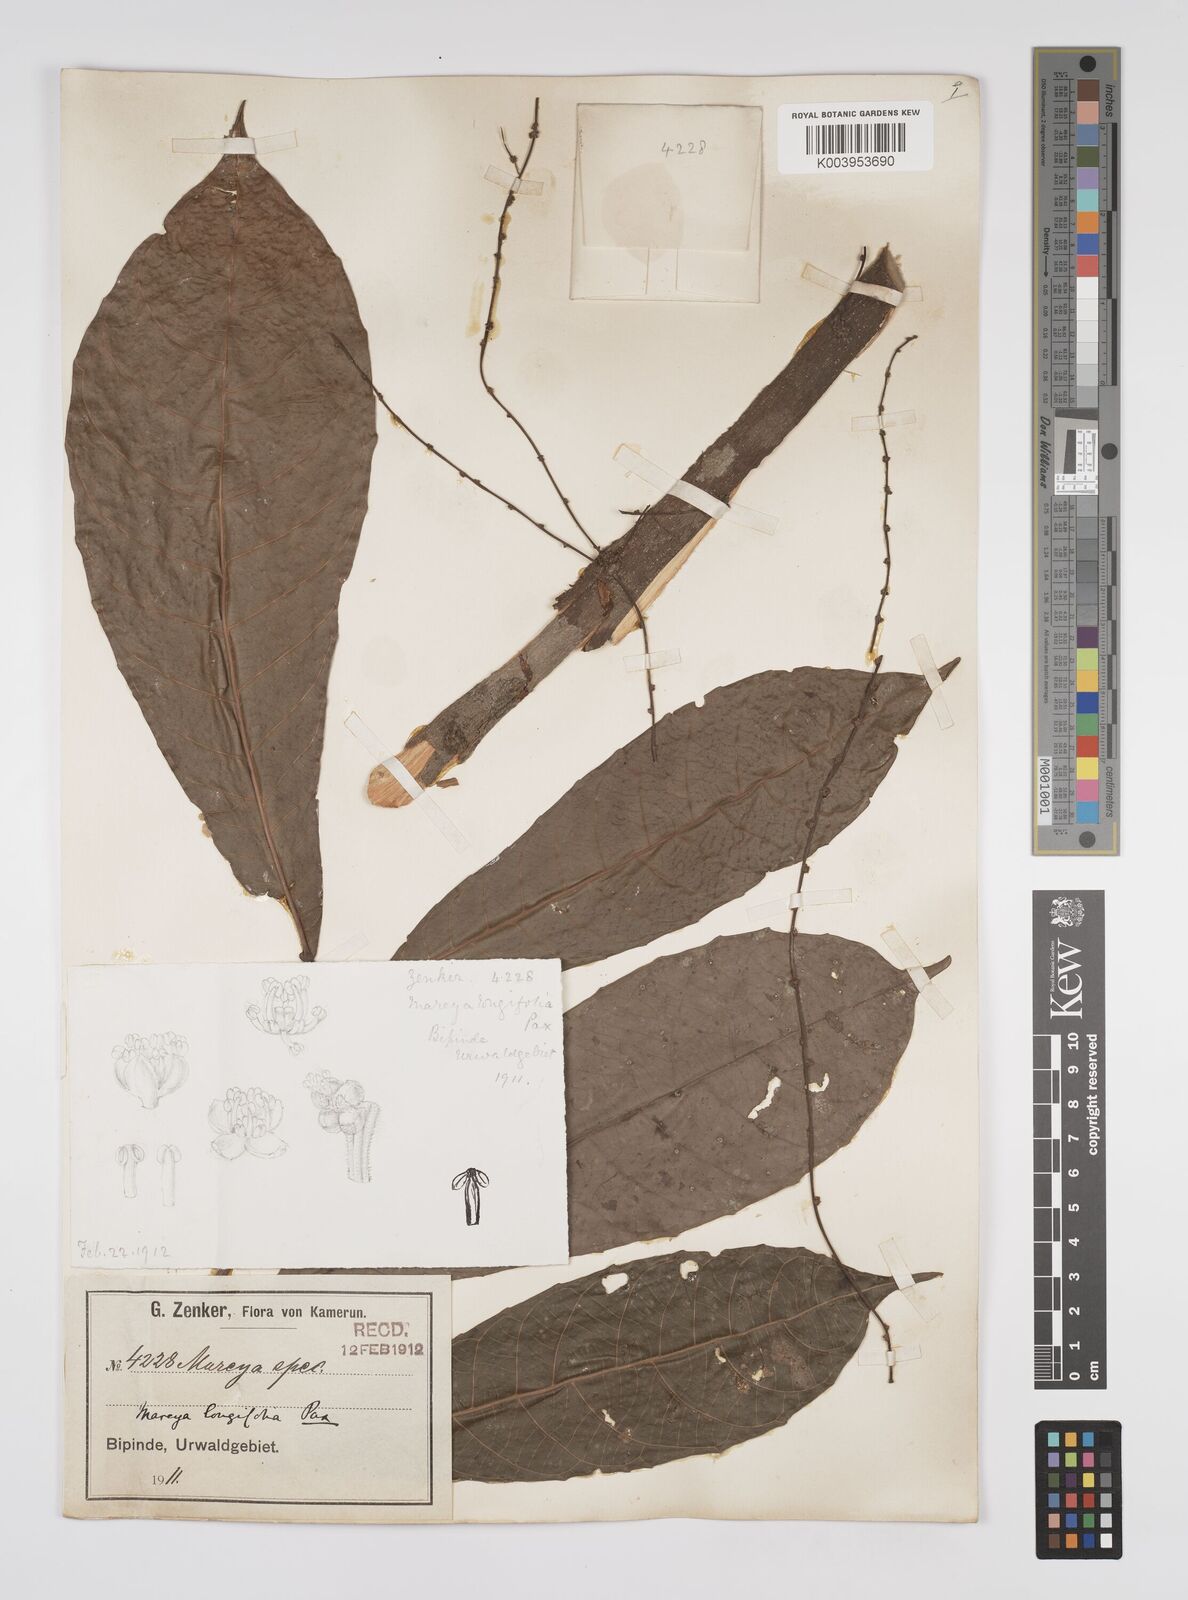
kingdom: Plantae
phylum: Tracheophyta
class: Magnoliopsida
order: Malpighiales
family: Euphorbiaceae
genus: Mareyopsis
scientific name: Mareyopsis longifolia
